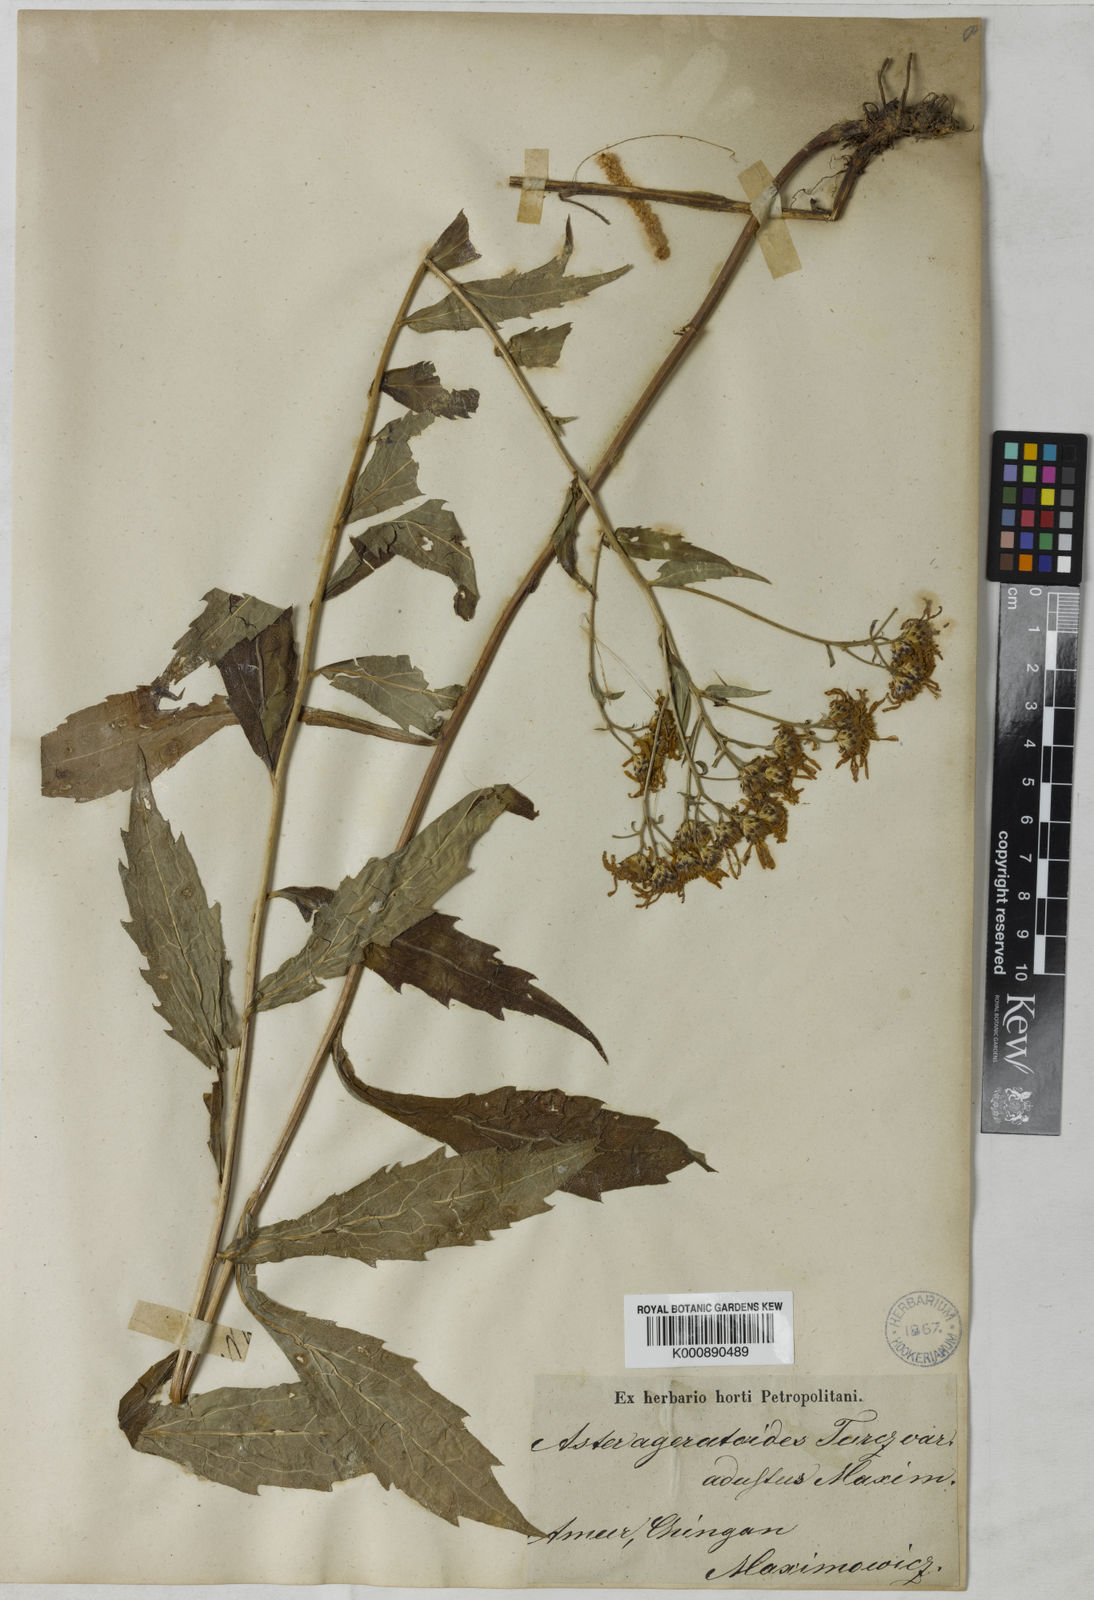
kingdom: Plantae
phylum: Tracheophyta
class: Magnoliopsida
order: Asterales
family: Asteraceae
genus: Aster
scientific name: Aster ageratoides
